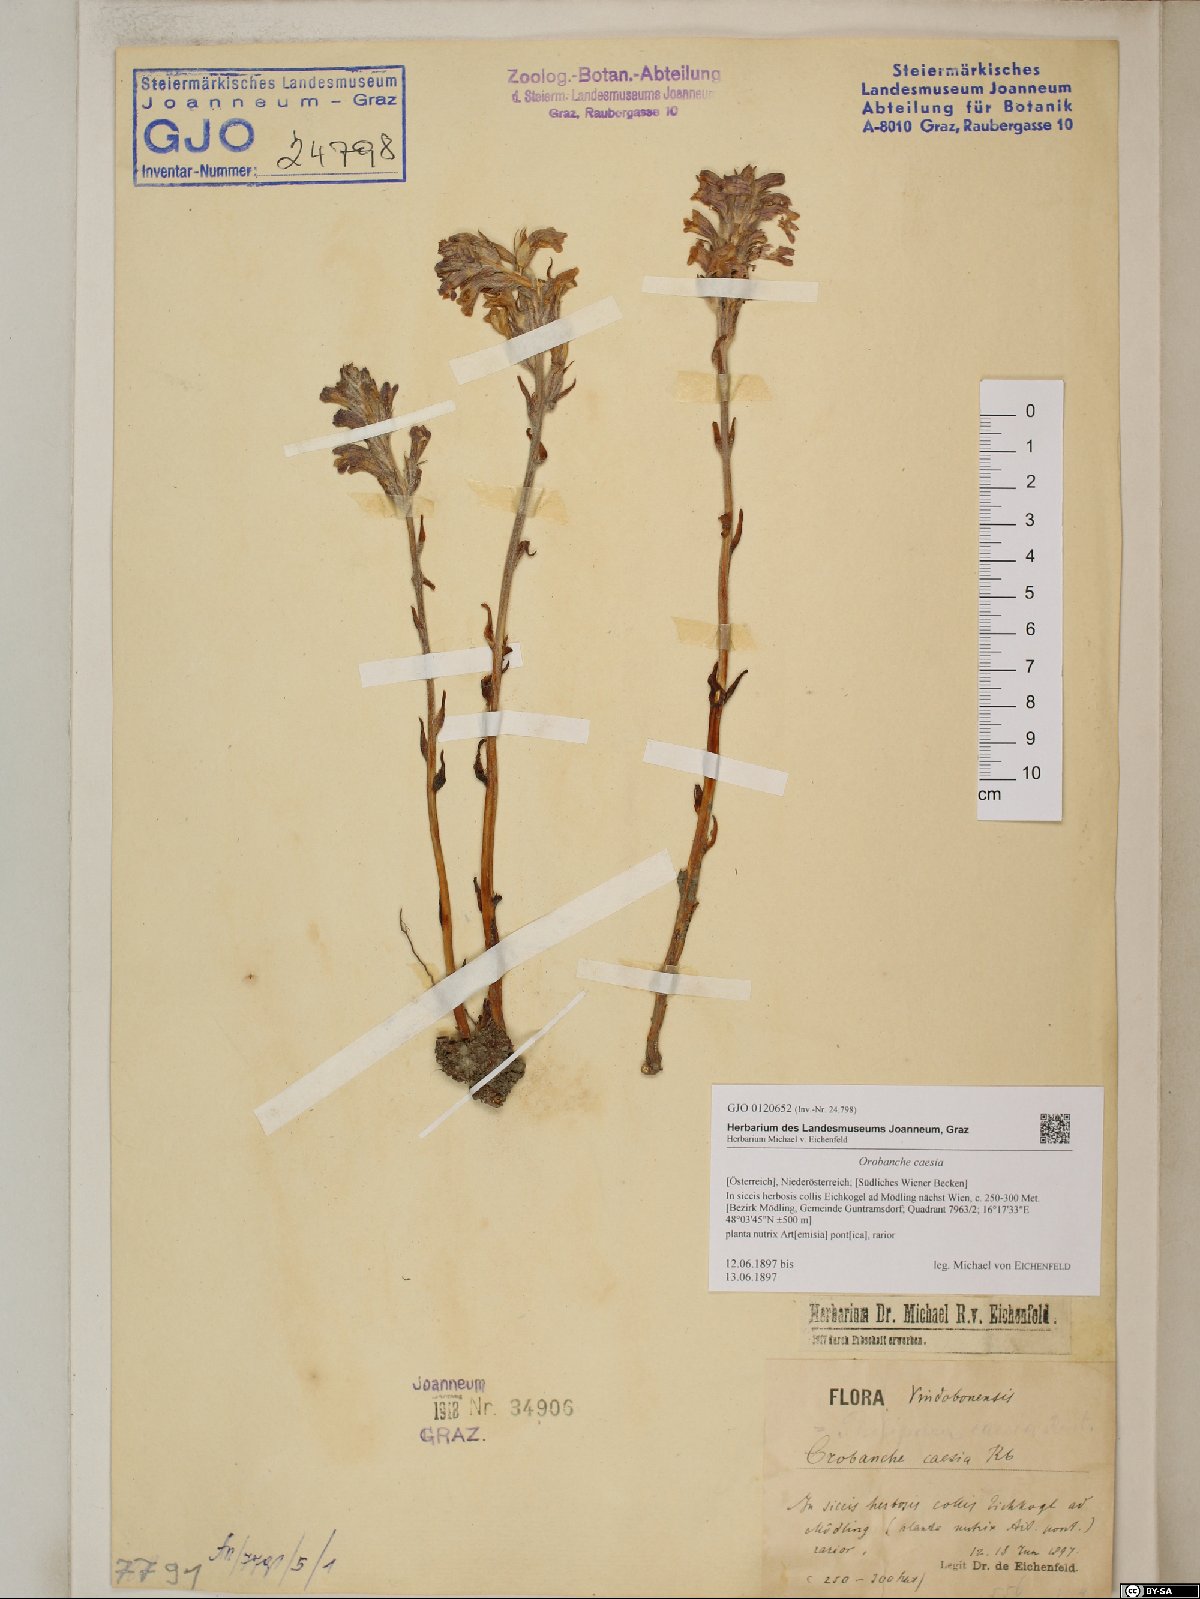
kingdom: Plantae
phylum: Tracheophyta
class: Magnoliopsida
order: Lamiales
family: Orobanchaceae
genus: Phelipanche
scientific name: Phelipanche caesia
